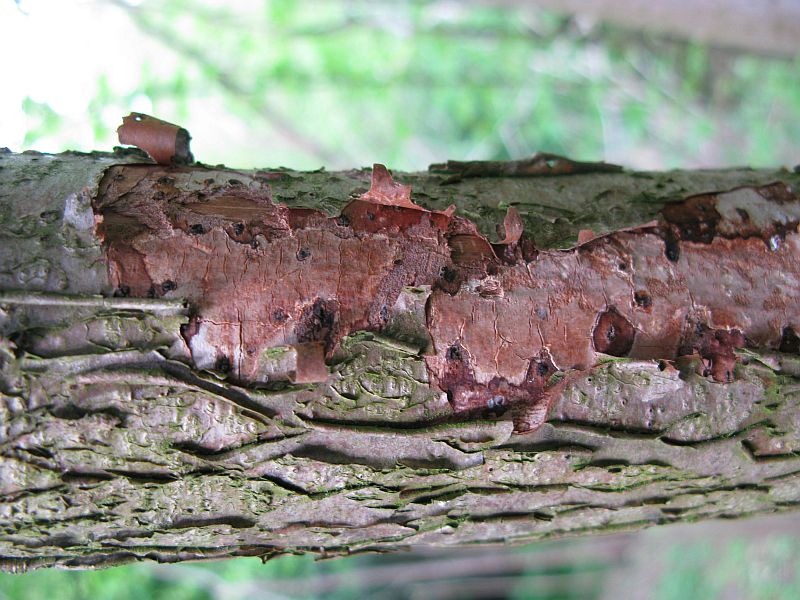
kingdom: Fungi
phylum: Basidiomycota
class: Agaricomycetes
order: Corticiales
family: Vuilleminiaceae
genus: Vuilleminia
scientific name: Vuilleminia coryli
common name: hassel-barksprænger
